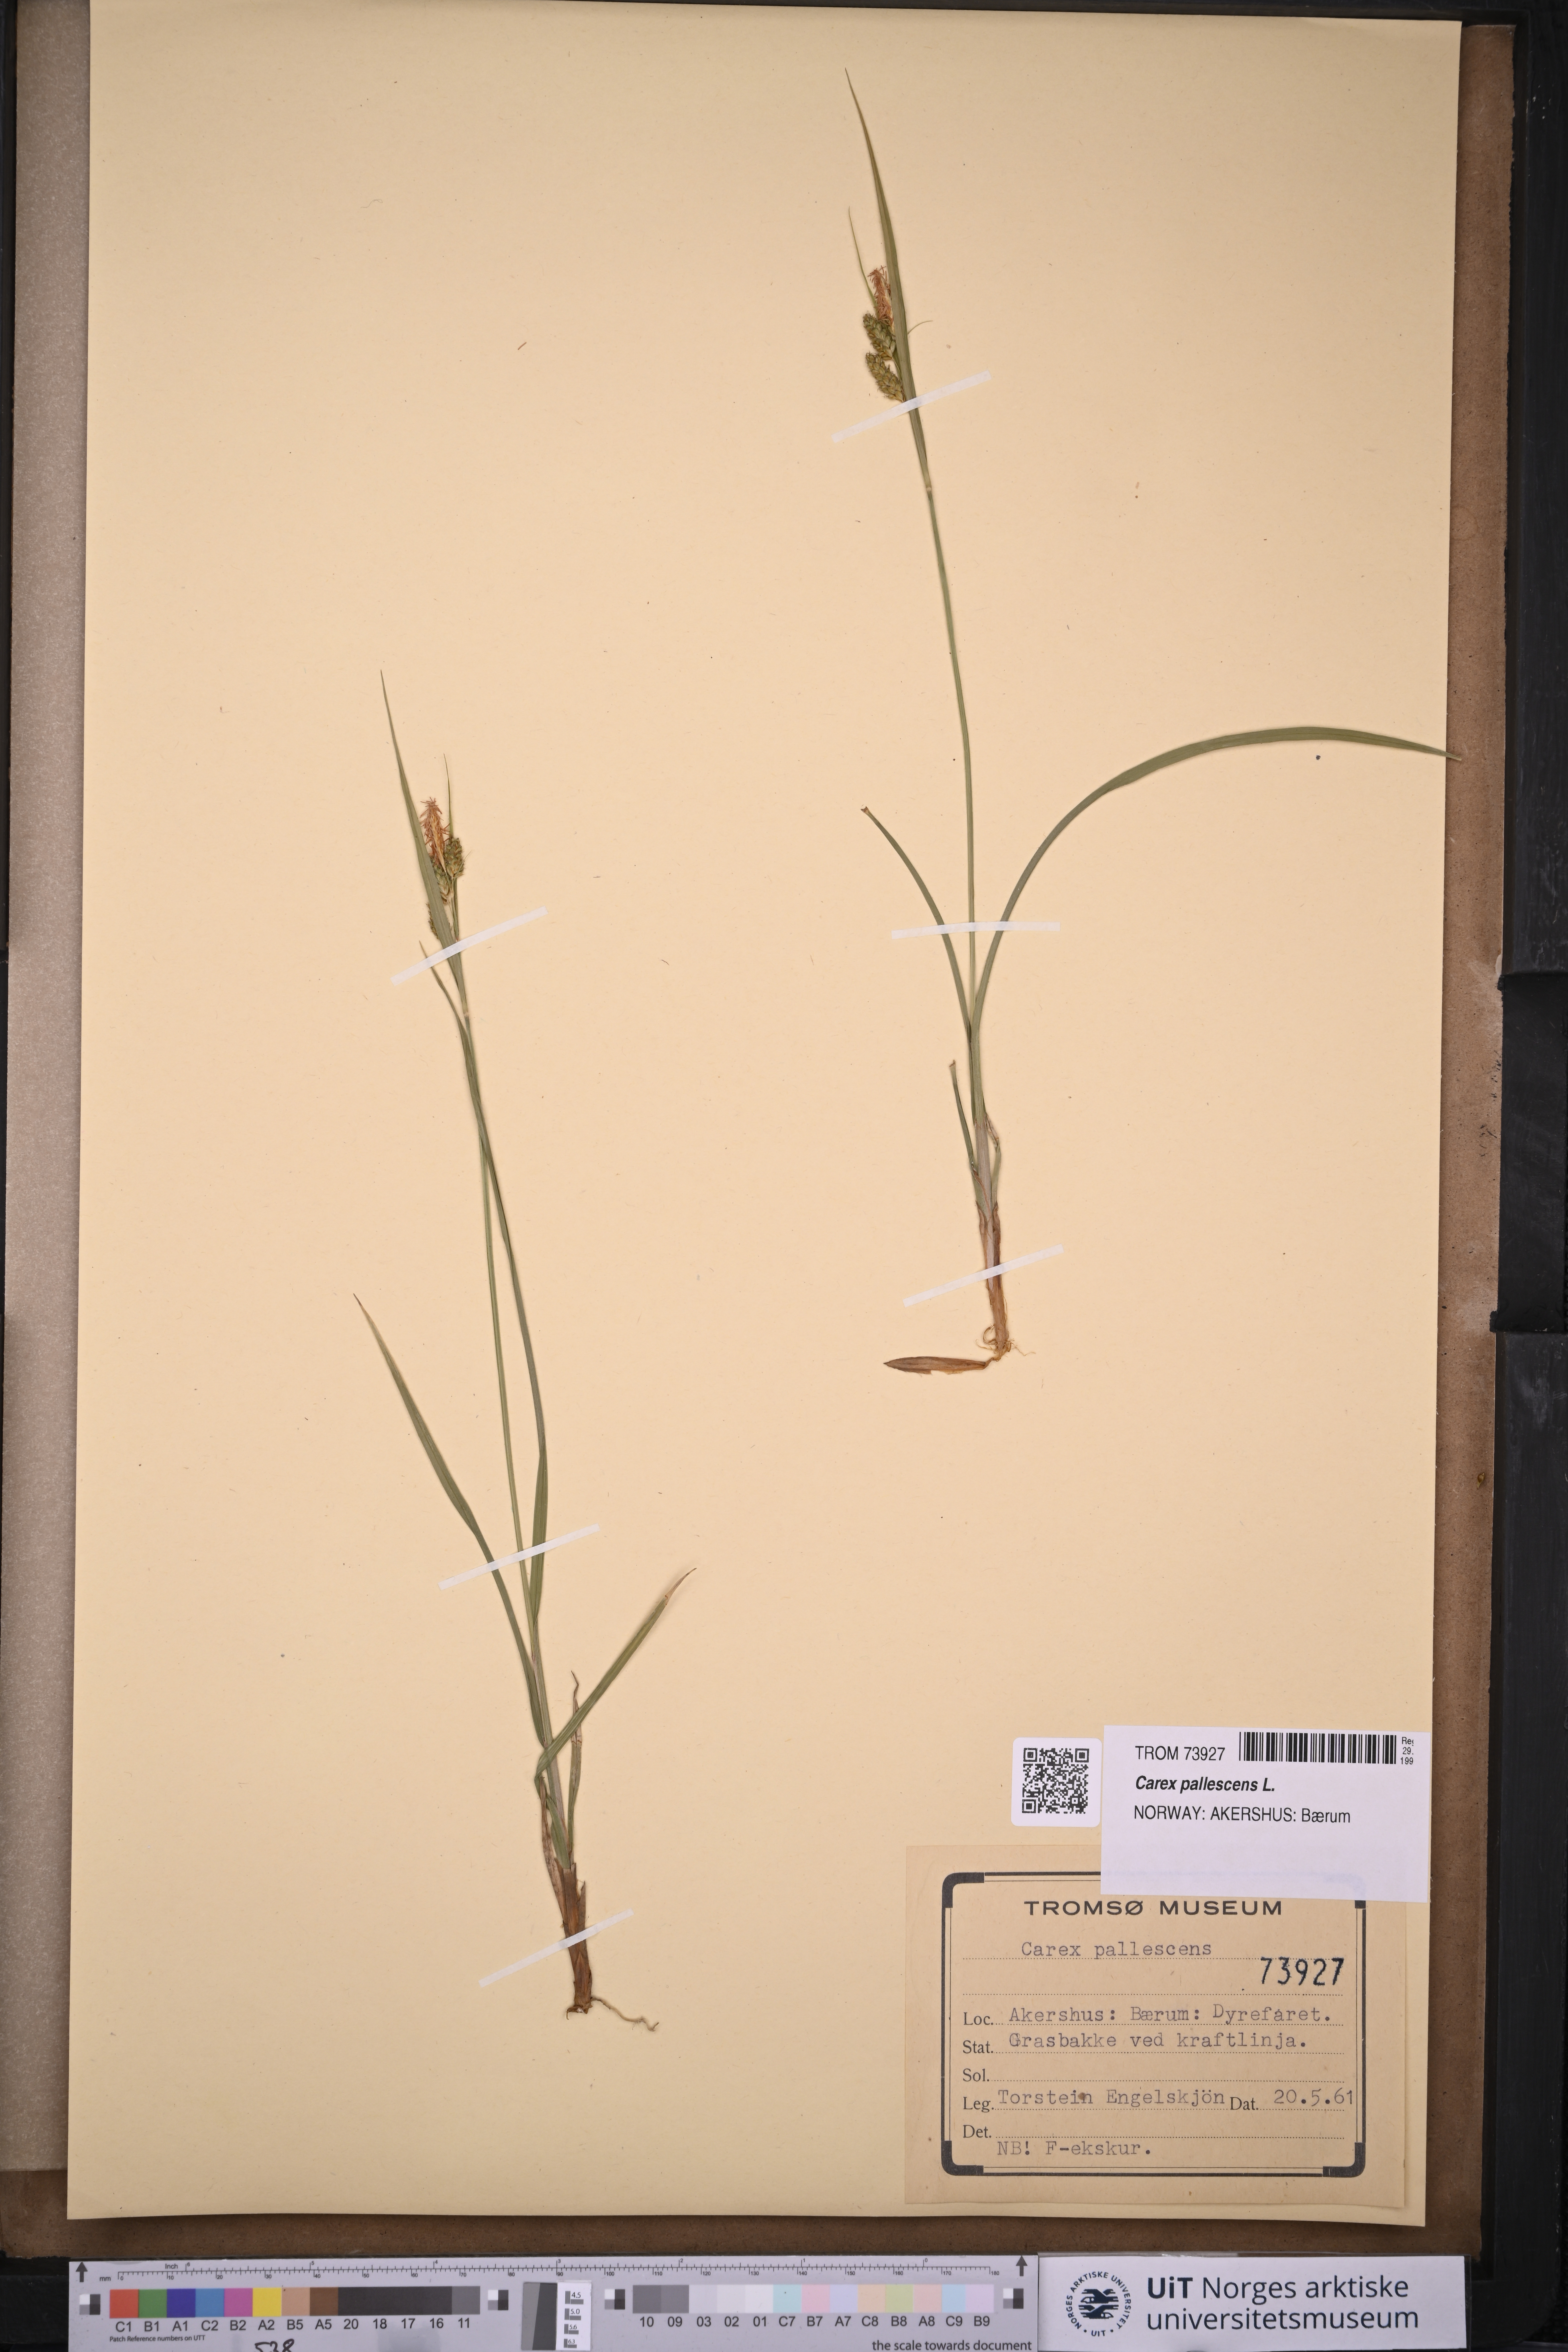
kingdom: Plantae
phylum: Tracheophyta
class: Liliopsida
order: Poales
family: Cyperaceae
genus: Carex
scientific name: Carex pallescens
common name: Pale sedge
